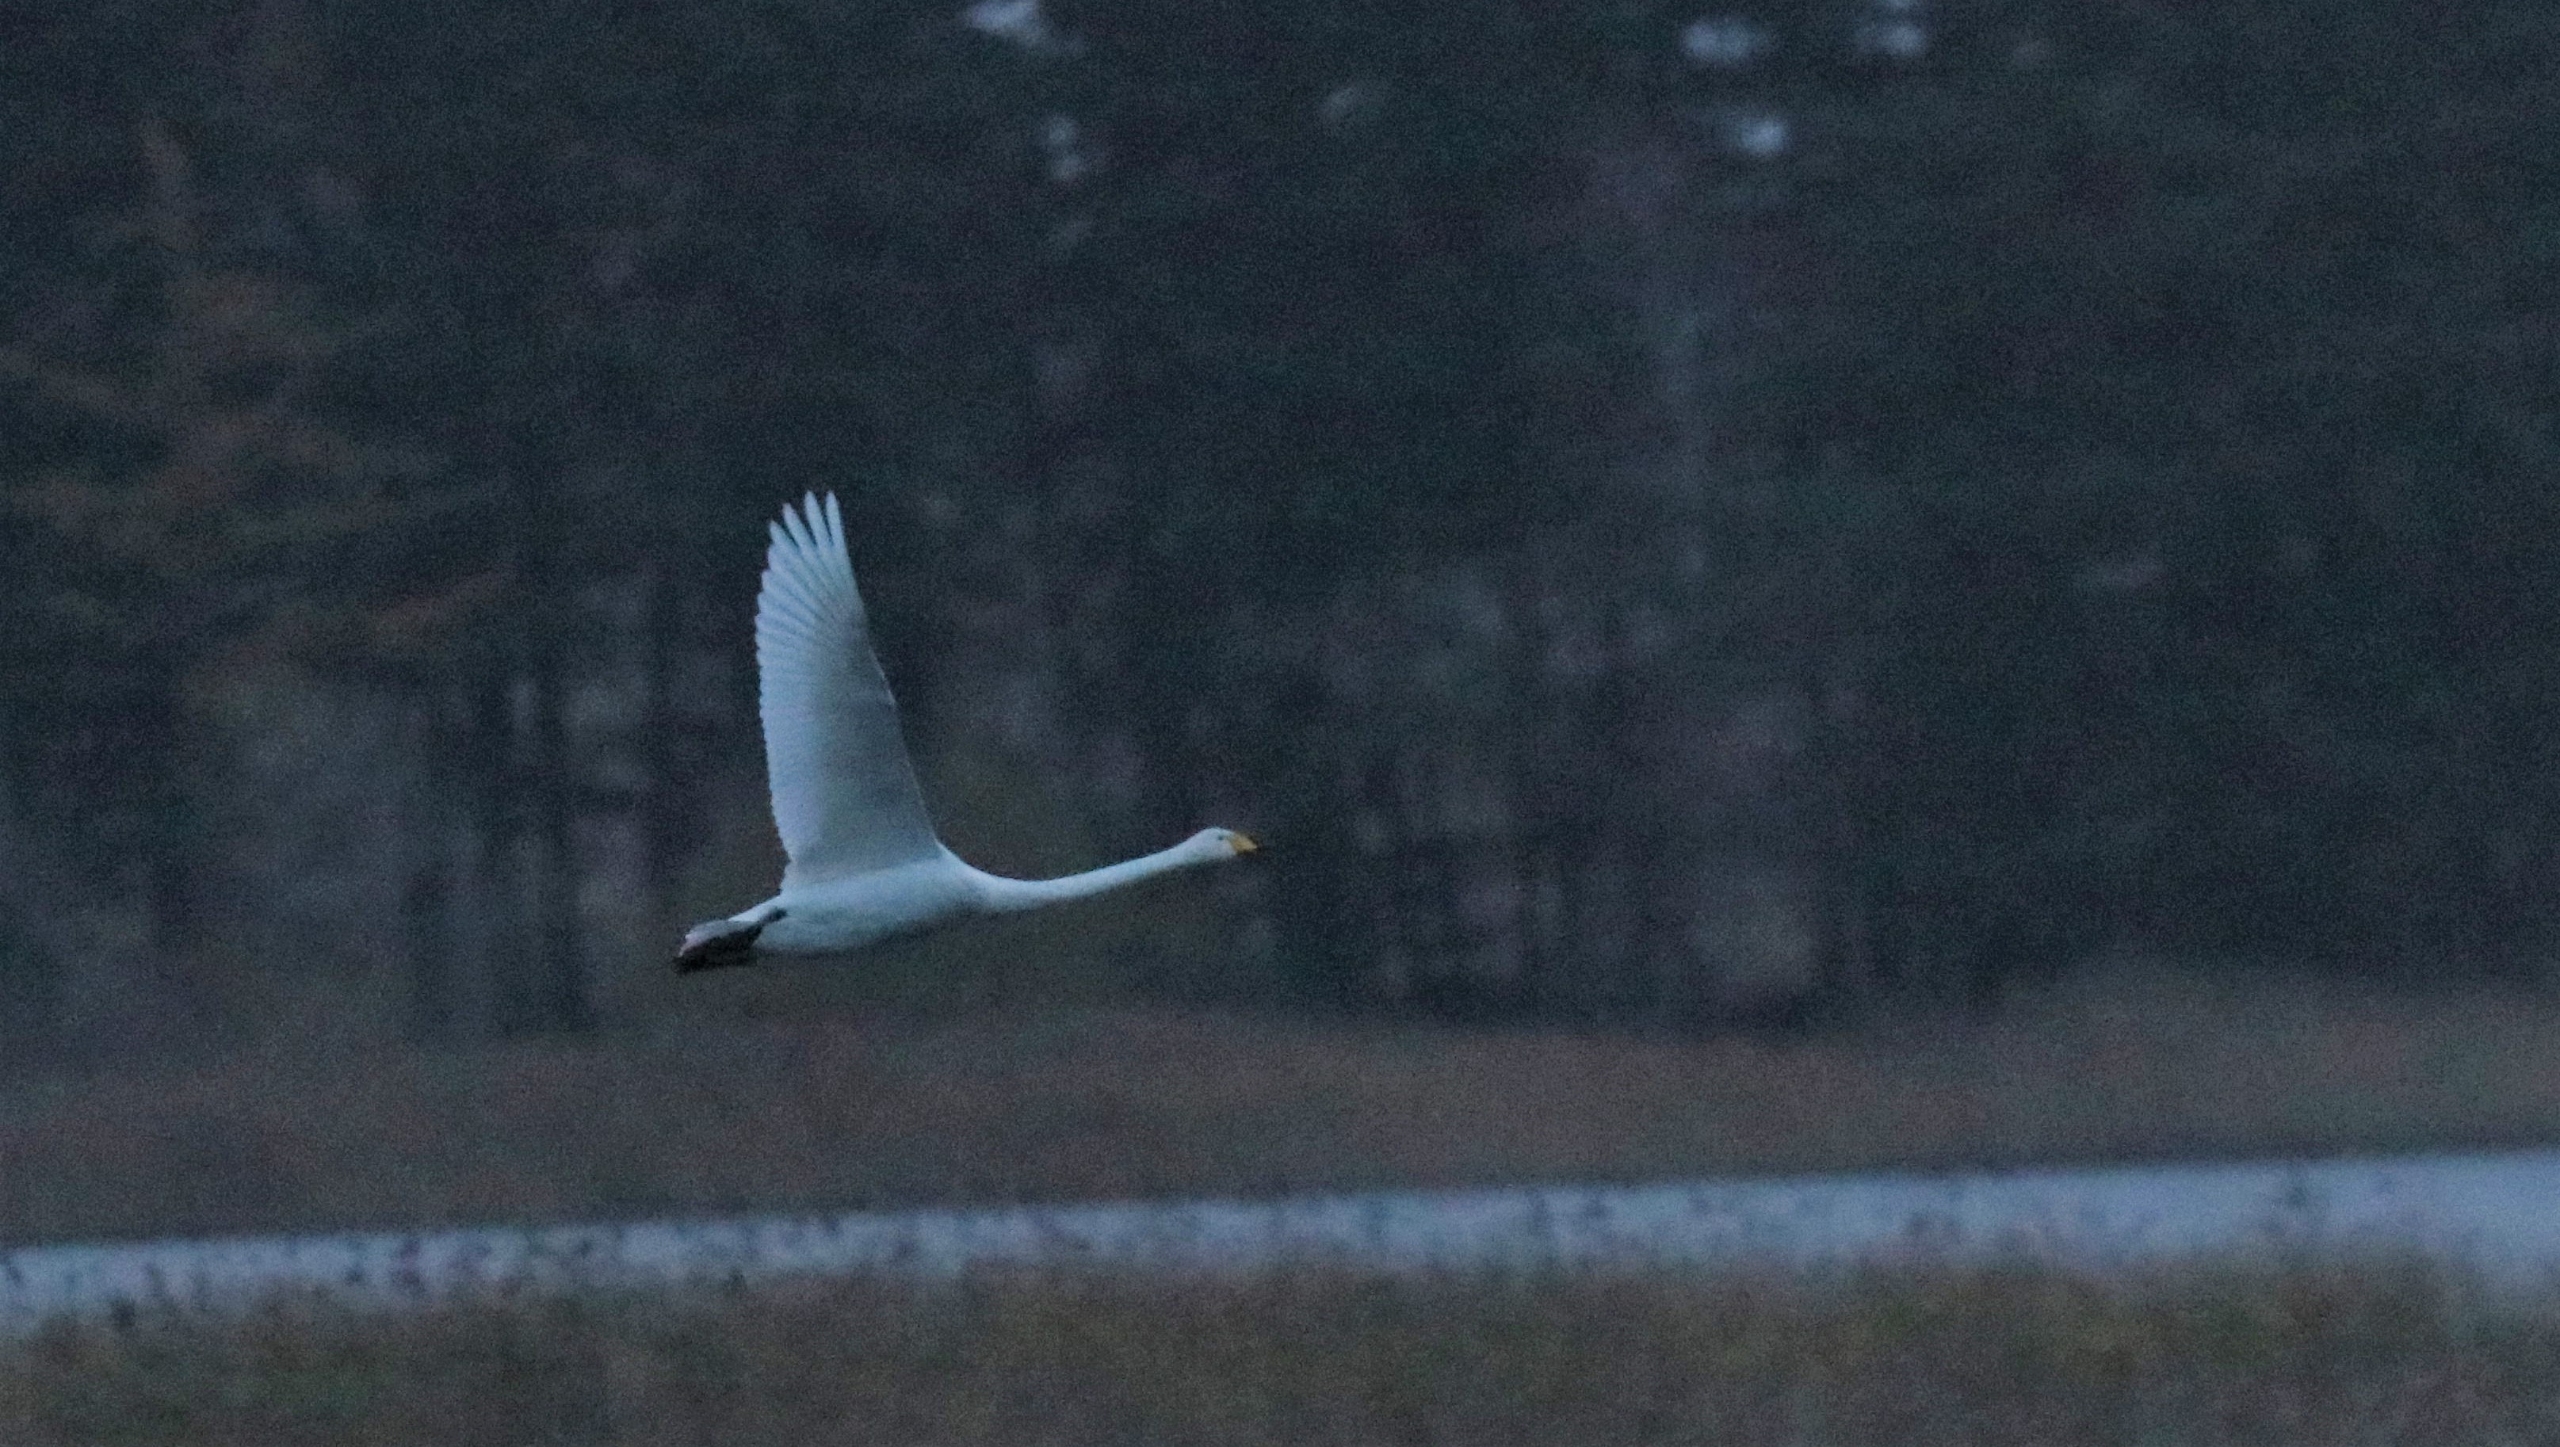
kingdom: Animalia
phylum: Chordata
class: Aves
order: Anseriformes
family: Anatidae
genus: Cygnus
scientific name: Cygnus cygnus
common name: Sangsvane
